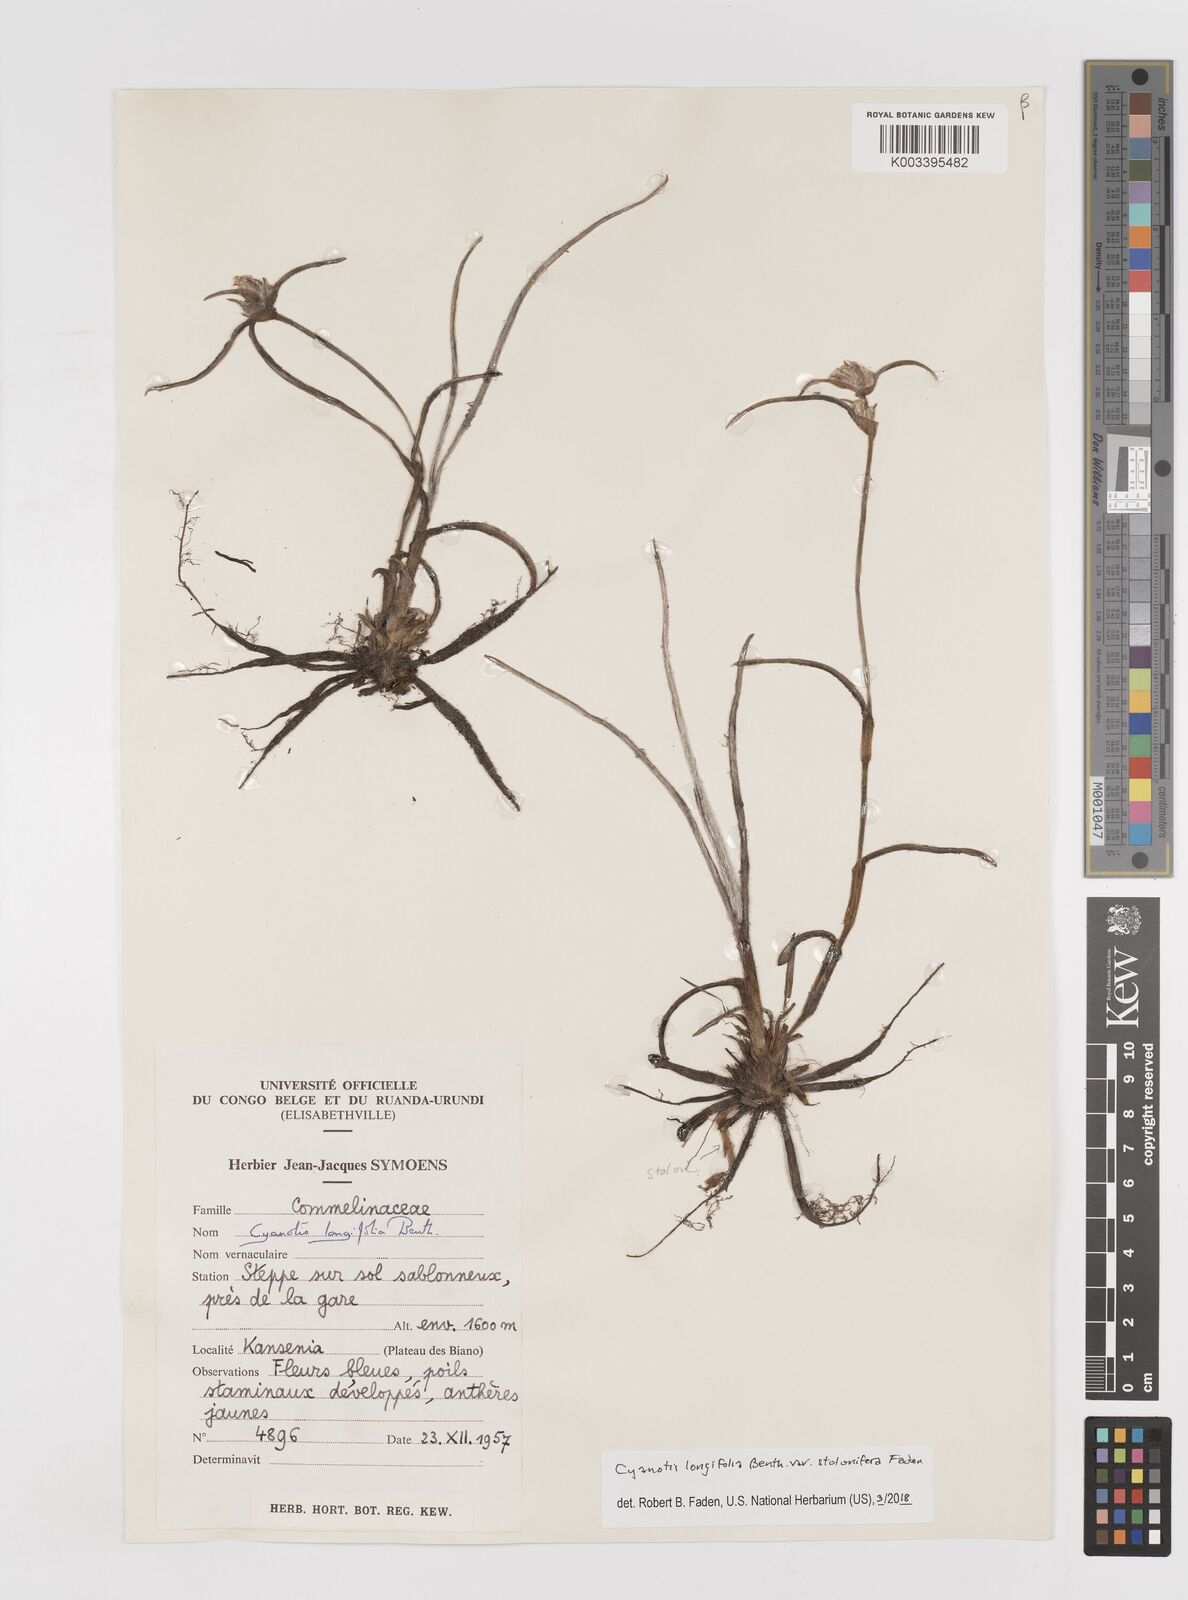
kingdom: Plantae
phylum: Tracheophyta
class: Liliopsida
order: Commelinales
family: Commelinaceae
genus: Cyanotis
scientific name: Cyanotis longifolia
